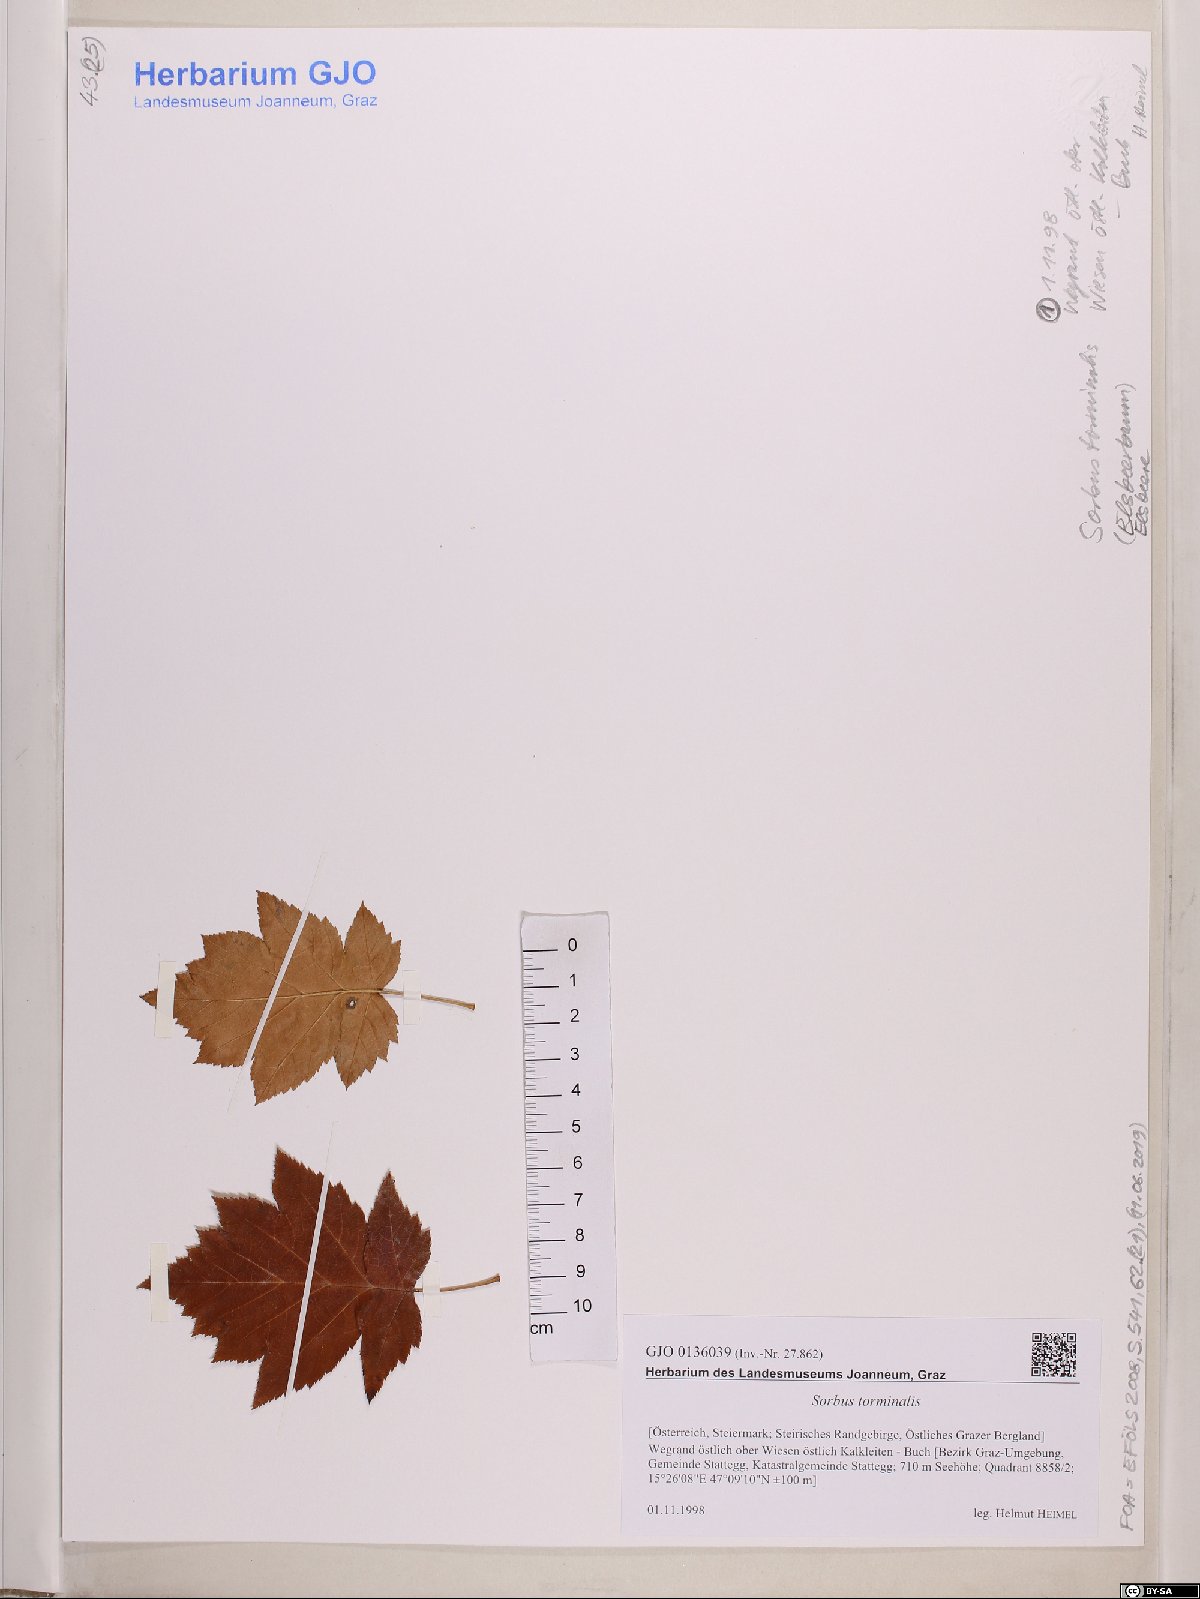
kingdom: Plantae
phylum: Tracheophyta
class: Magnoliopsida
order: Rosales
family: Rosaceae
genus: Torminalis
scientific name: Torminalis glaberrima
